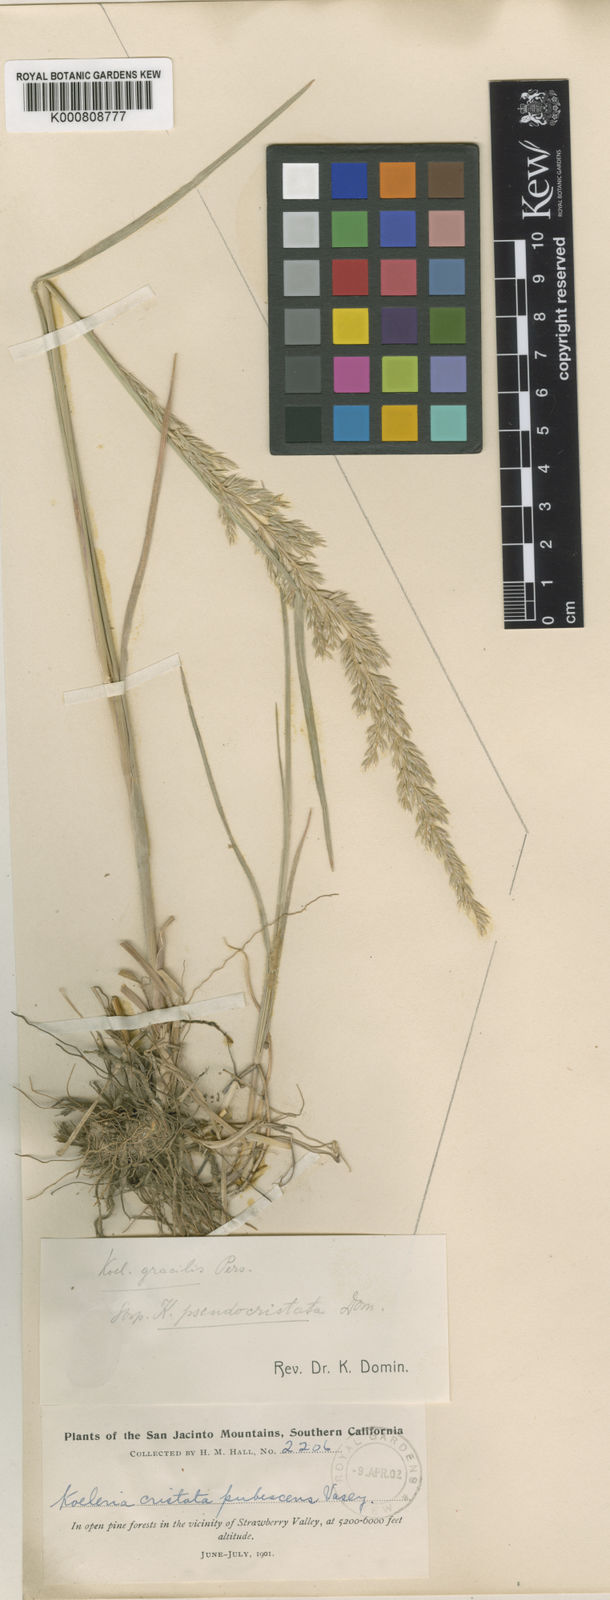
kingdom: Plantae
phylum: Tracheophyta
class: Liliopsida
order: Poales
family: Poaceae
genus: Koeleria
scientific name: Koeleria macrantha
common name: Crested hair-grass
